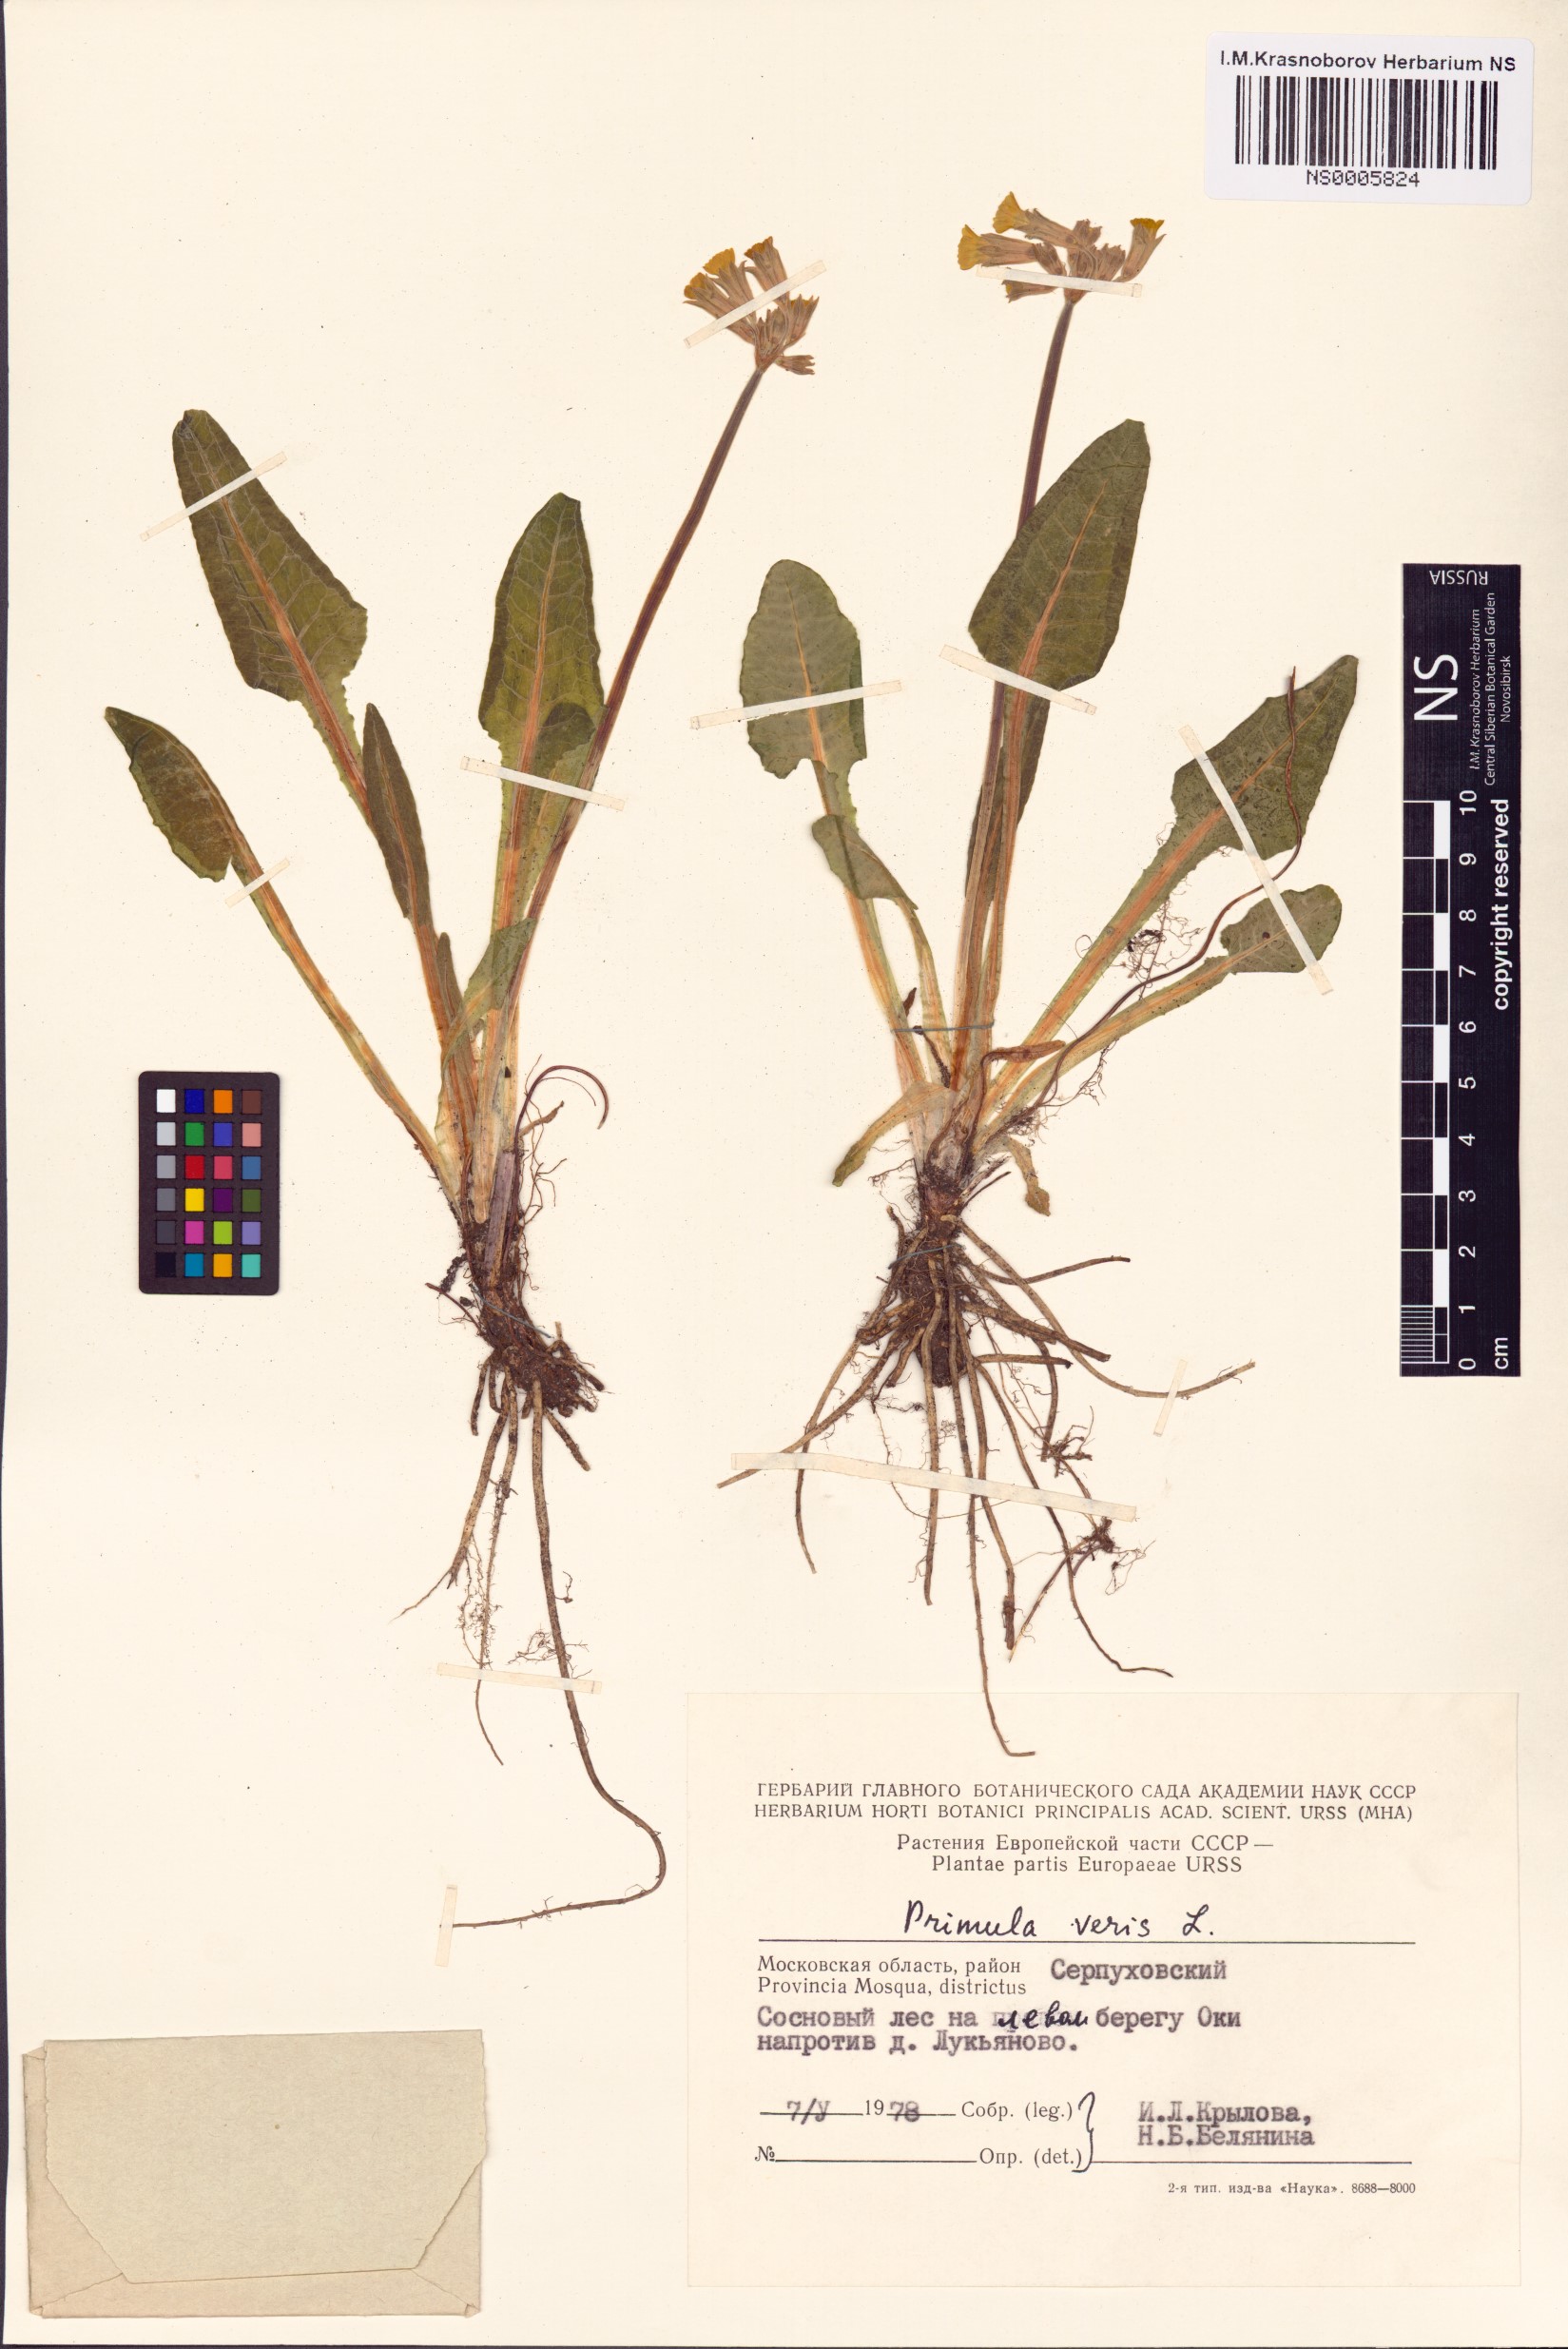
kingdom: Plantae
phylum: Tracheophyta
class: Magnoliopsida
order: Ericales
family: Primulaceae
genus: Primula
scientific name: Primula veris
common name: Cowslip
